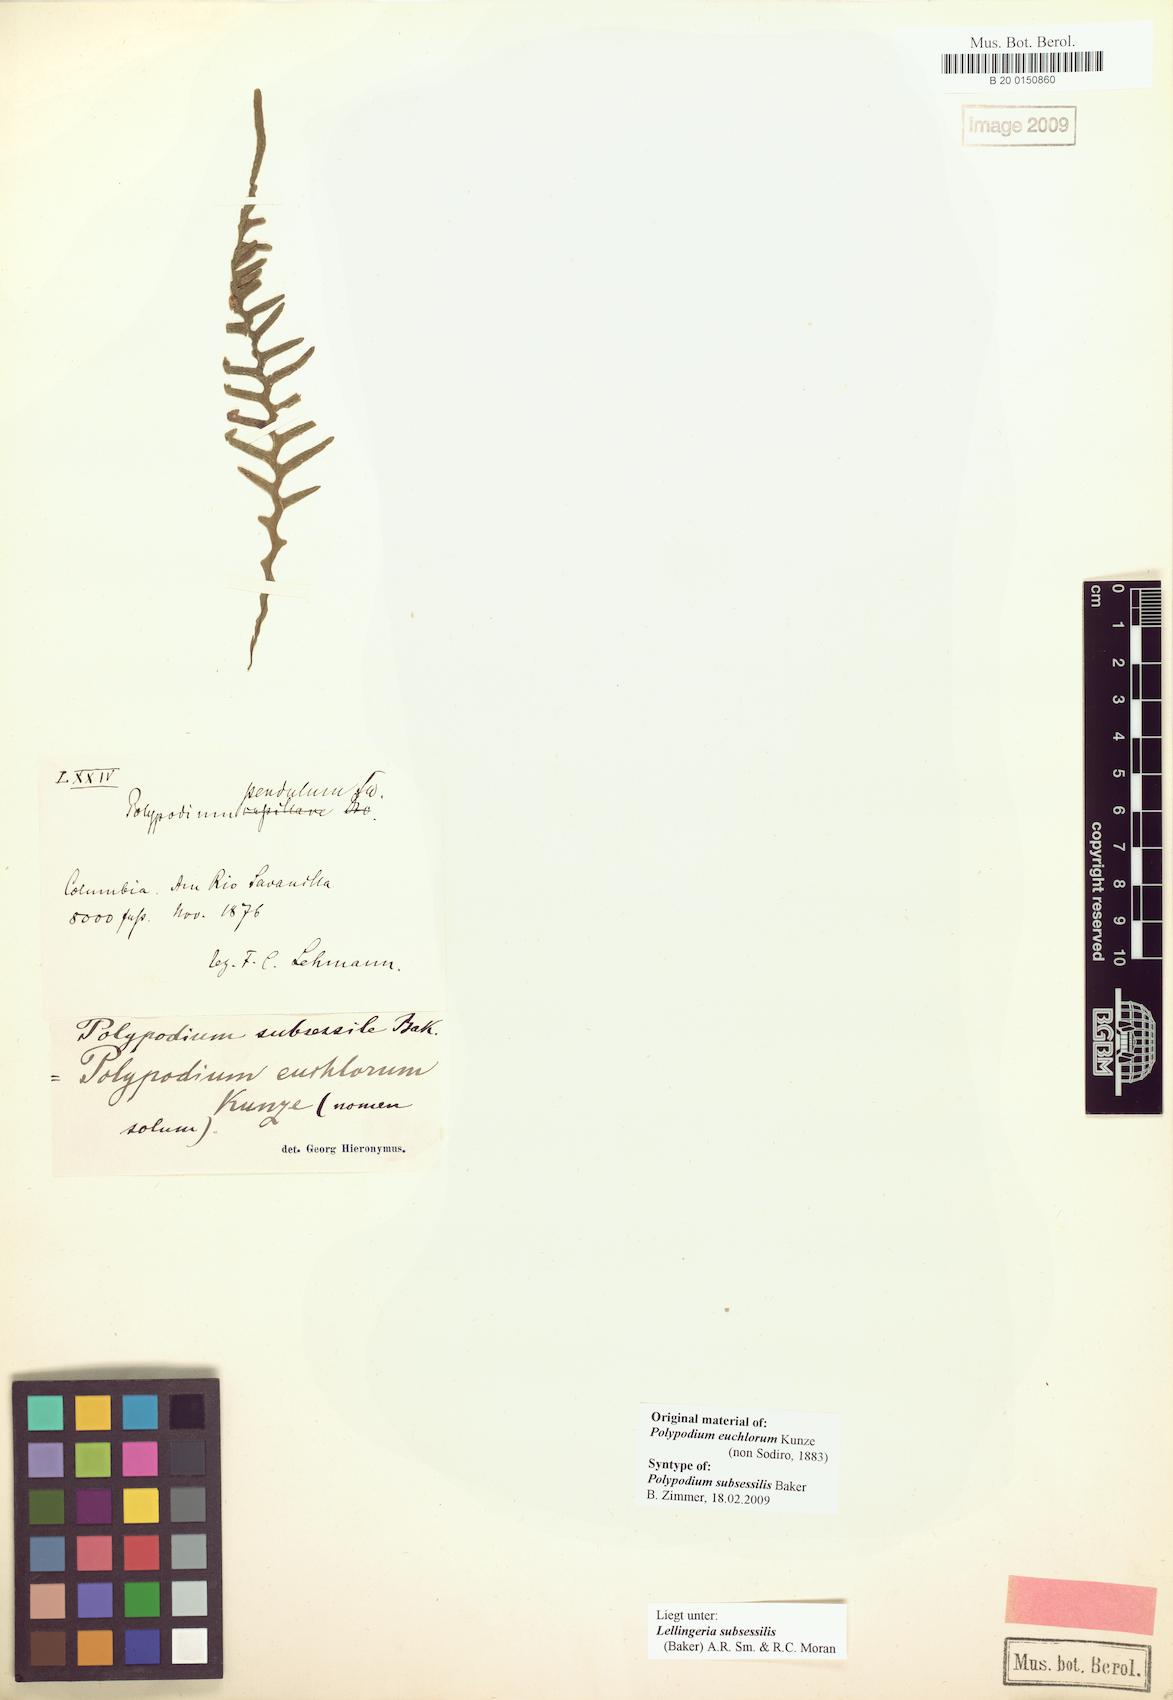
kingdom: Plantae
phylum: Tracheophyta
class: Polypodiopsida
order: Polypodiales
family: Polypodiaceae
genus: Lellingeria
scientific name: Lellingeria subsessilis
